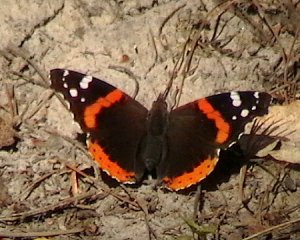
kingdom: Animalia
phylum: Arthropoda
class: Insecta
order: Lepidoptera
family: Nymphalidae
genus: Vanessa
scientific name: Vanessa atalanta
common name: Red Admiral
